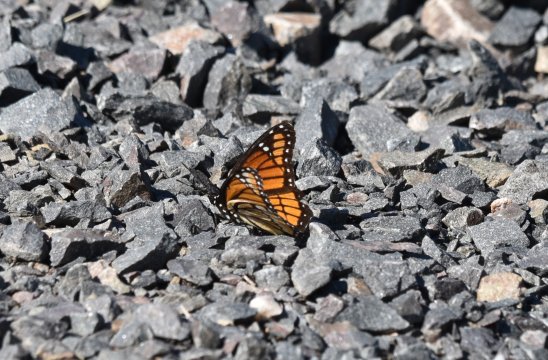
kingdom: Animalia
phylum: Arthropoda
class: Insecta
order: Lepidoptera
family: Nymphalidae
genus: Limenitis
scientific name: Limenitis archippus
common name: Viceroy
